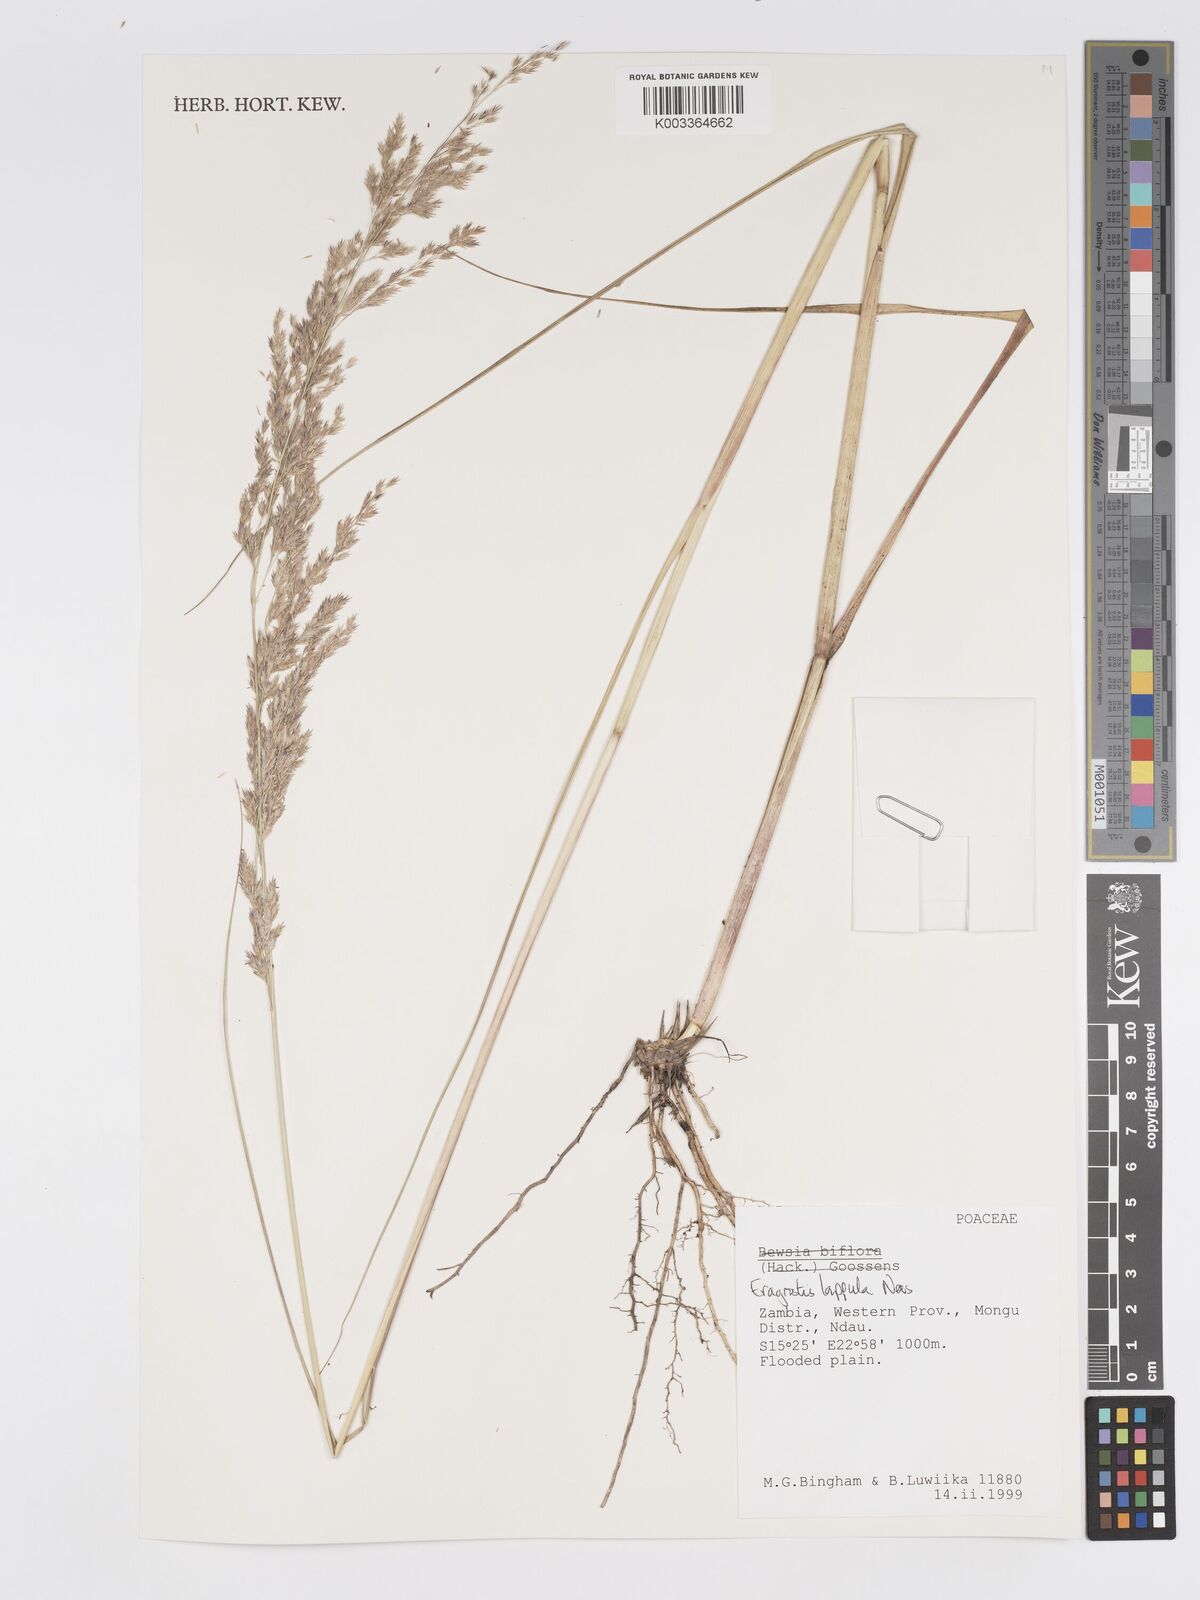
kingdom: Plantae
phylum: Tracheophyta
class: Liliopsida
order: Poales
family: Poaceae
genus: Eragrostis
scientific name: Eragrostis lappula
